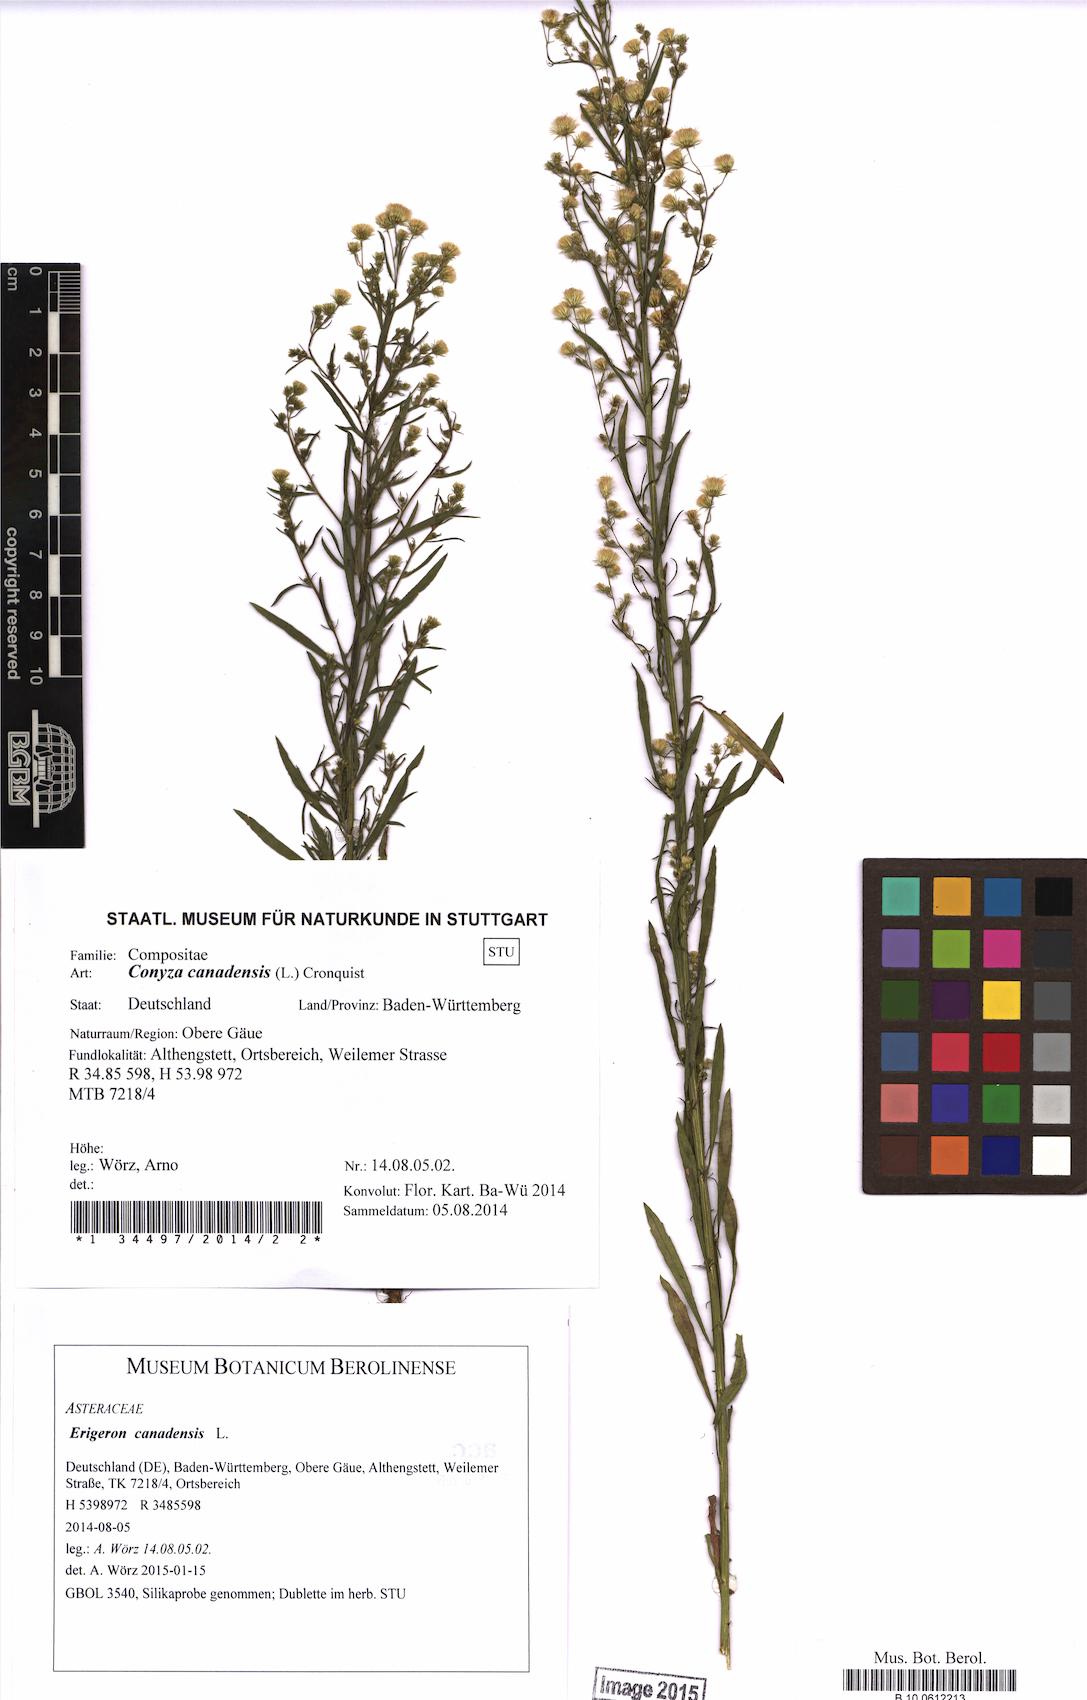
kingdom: Plantae
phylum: Tracheophyta
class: Magnoliopsida
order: Asterales
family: Asteraceae
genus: Erigeron
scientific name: Erigeron canadensis
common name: Canadian fleabane
